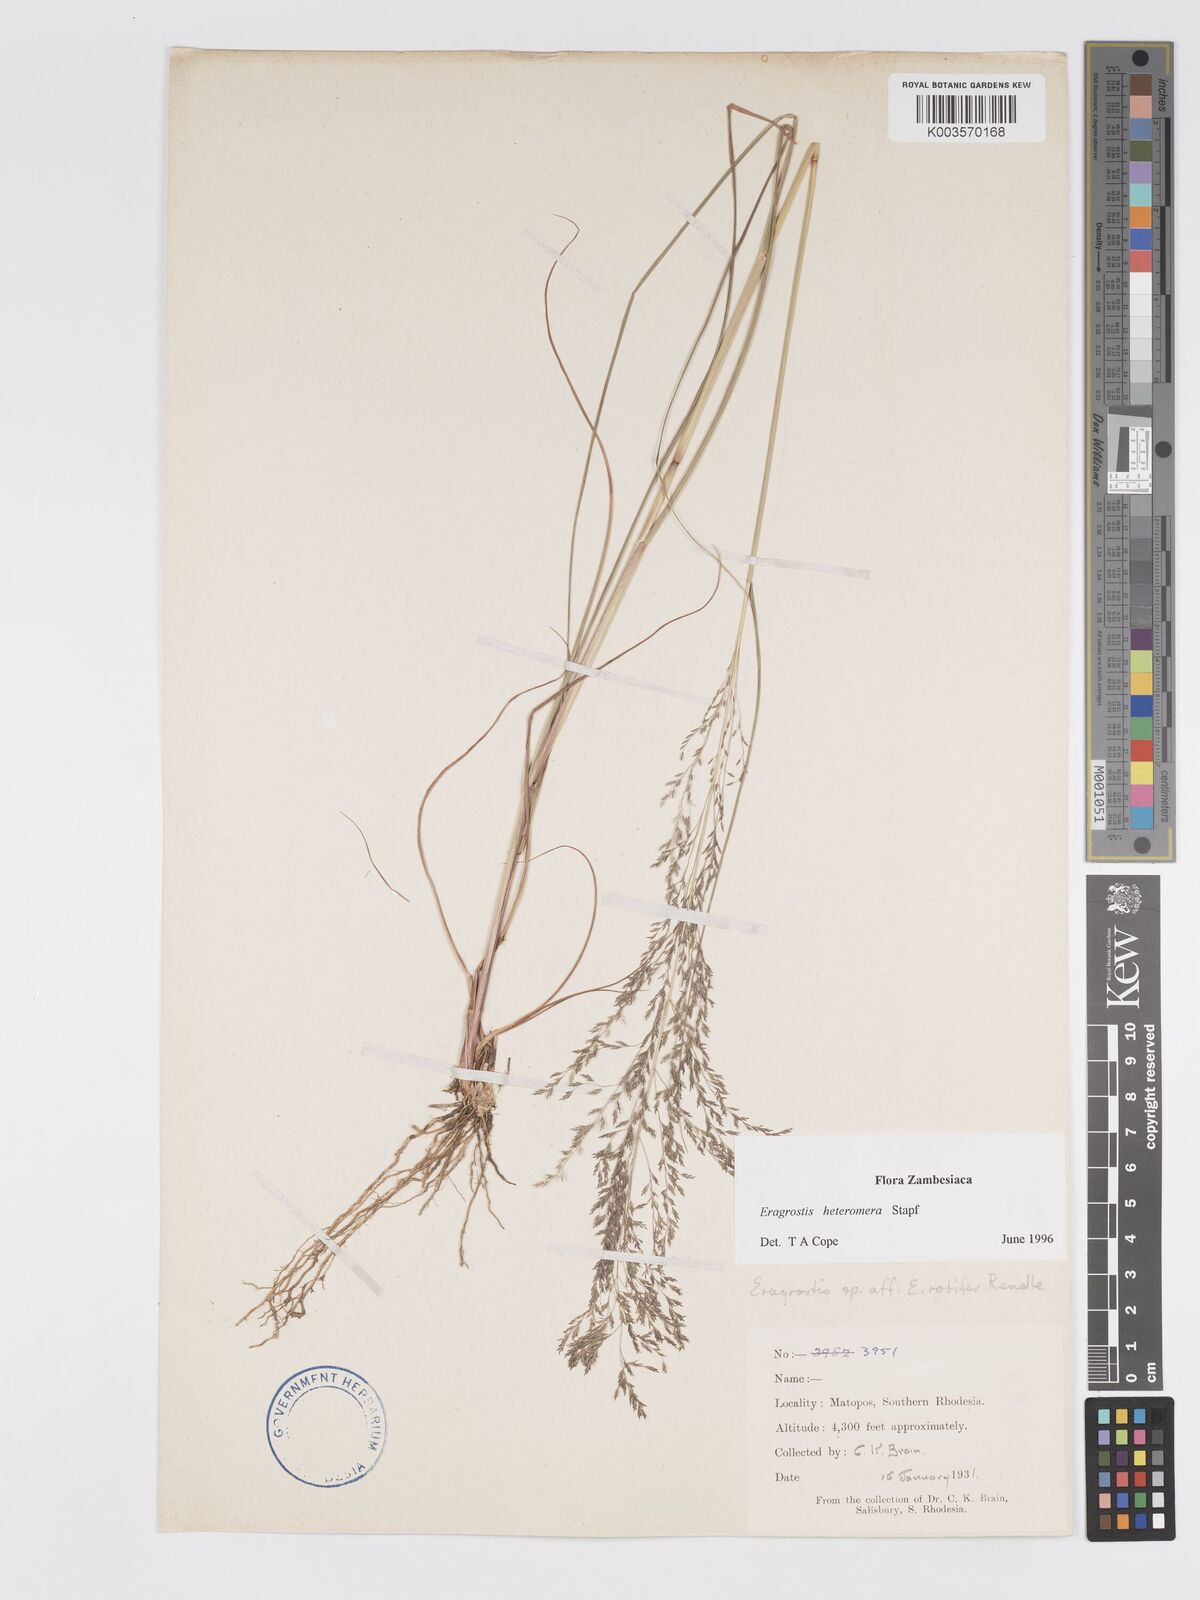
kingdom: Plantae
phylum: Tracheophyta
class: Liliopsida
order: Poales
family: Poaceae
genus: Eragrostis
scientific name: Eragrostis heteromera
